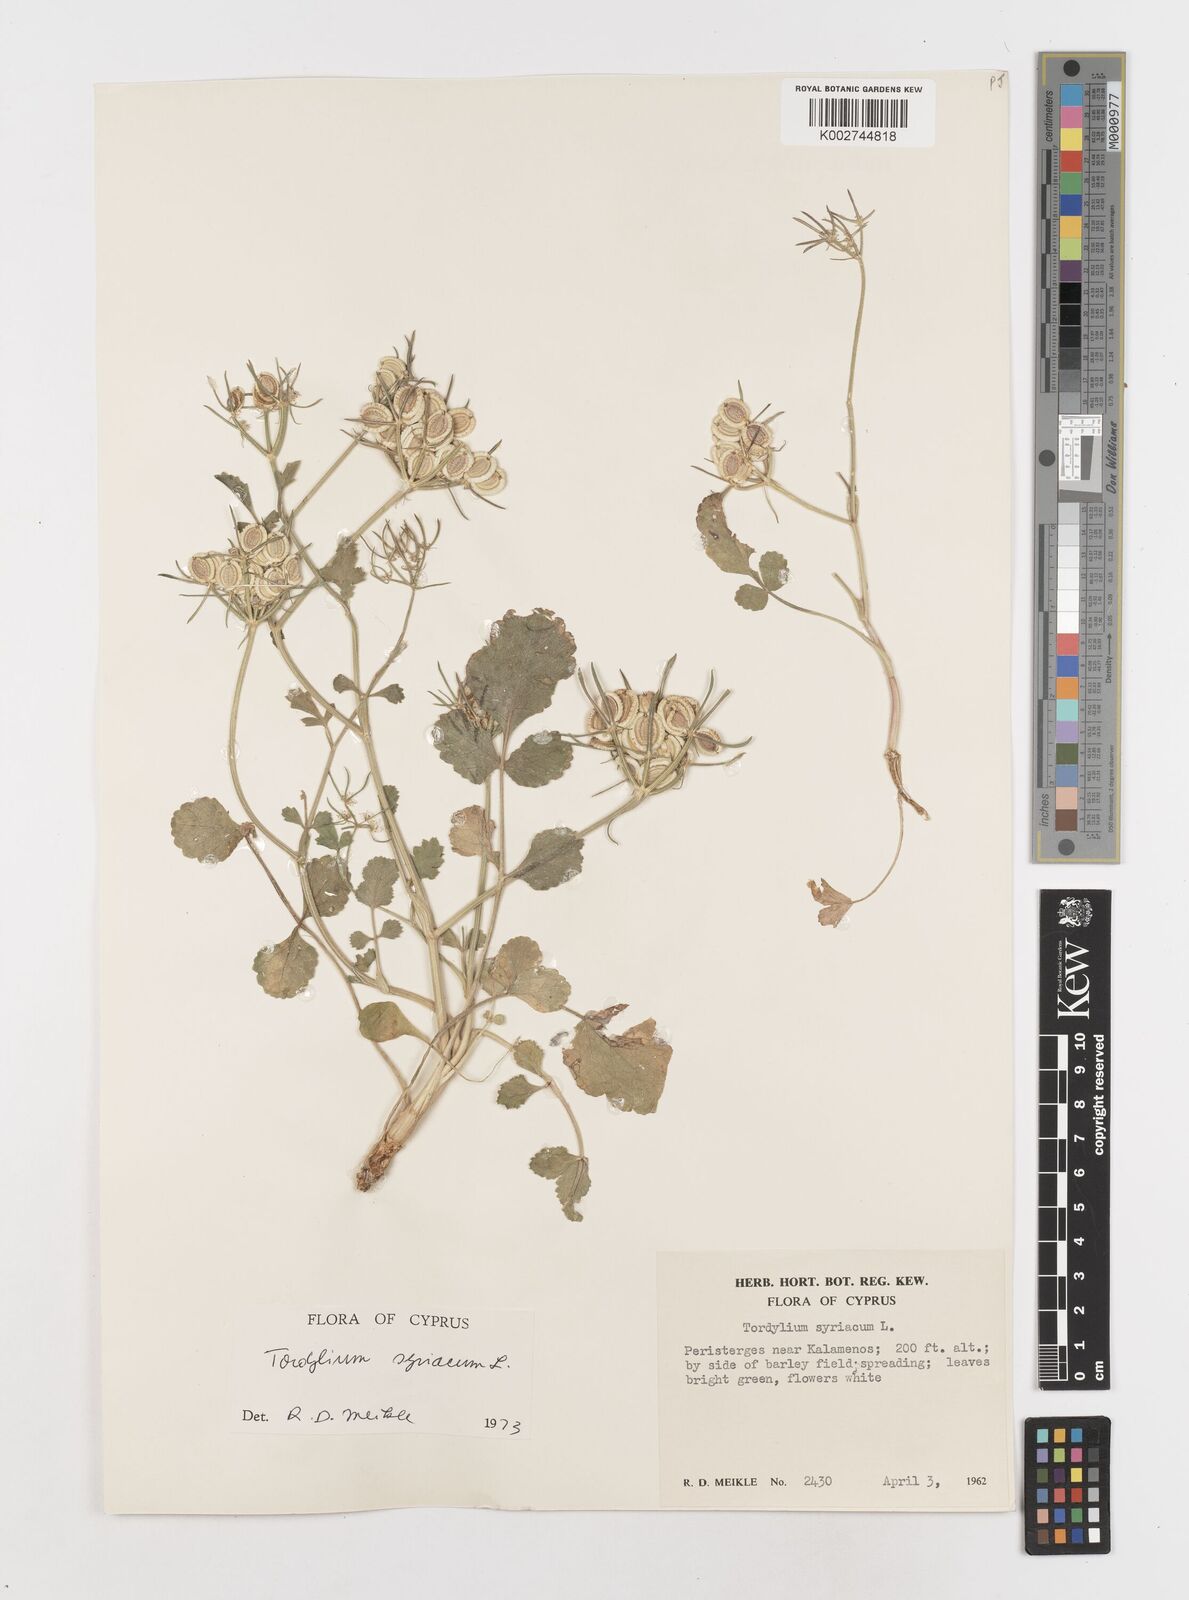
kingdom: Plantae
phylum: Tracheophyta
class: Magnoliopsida
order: Apiales
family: Apiaceae
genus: Tordylium
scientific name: Tordylium syriacum
